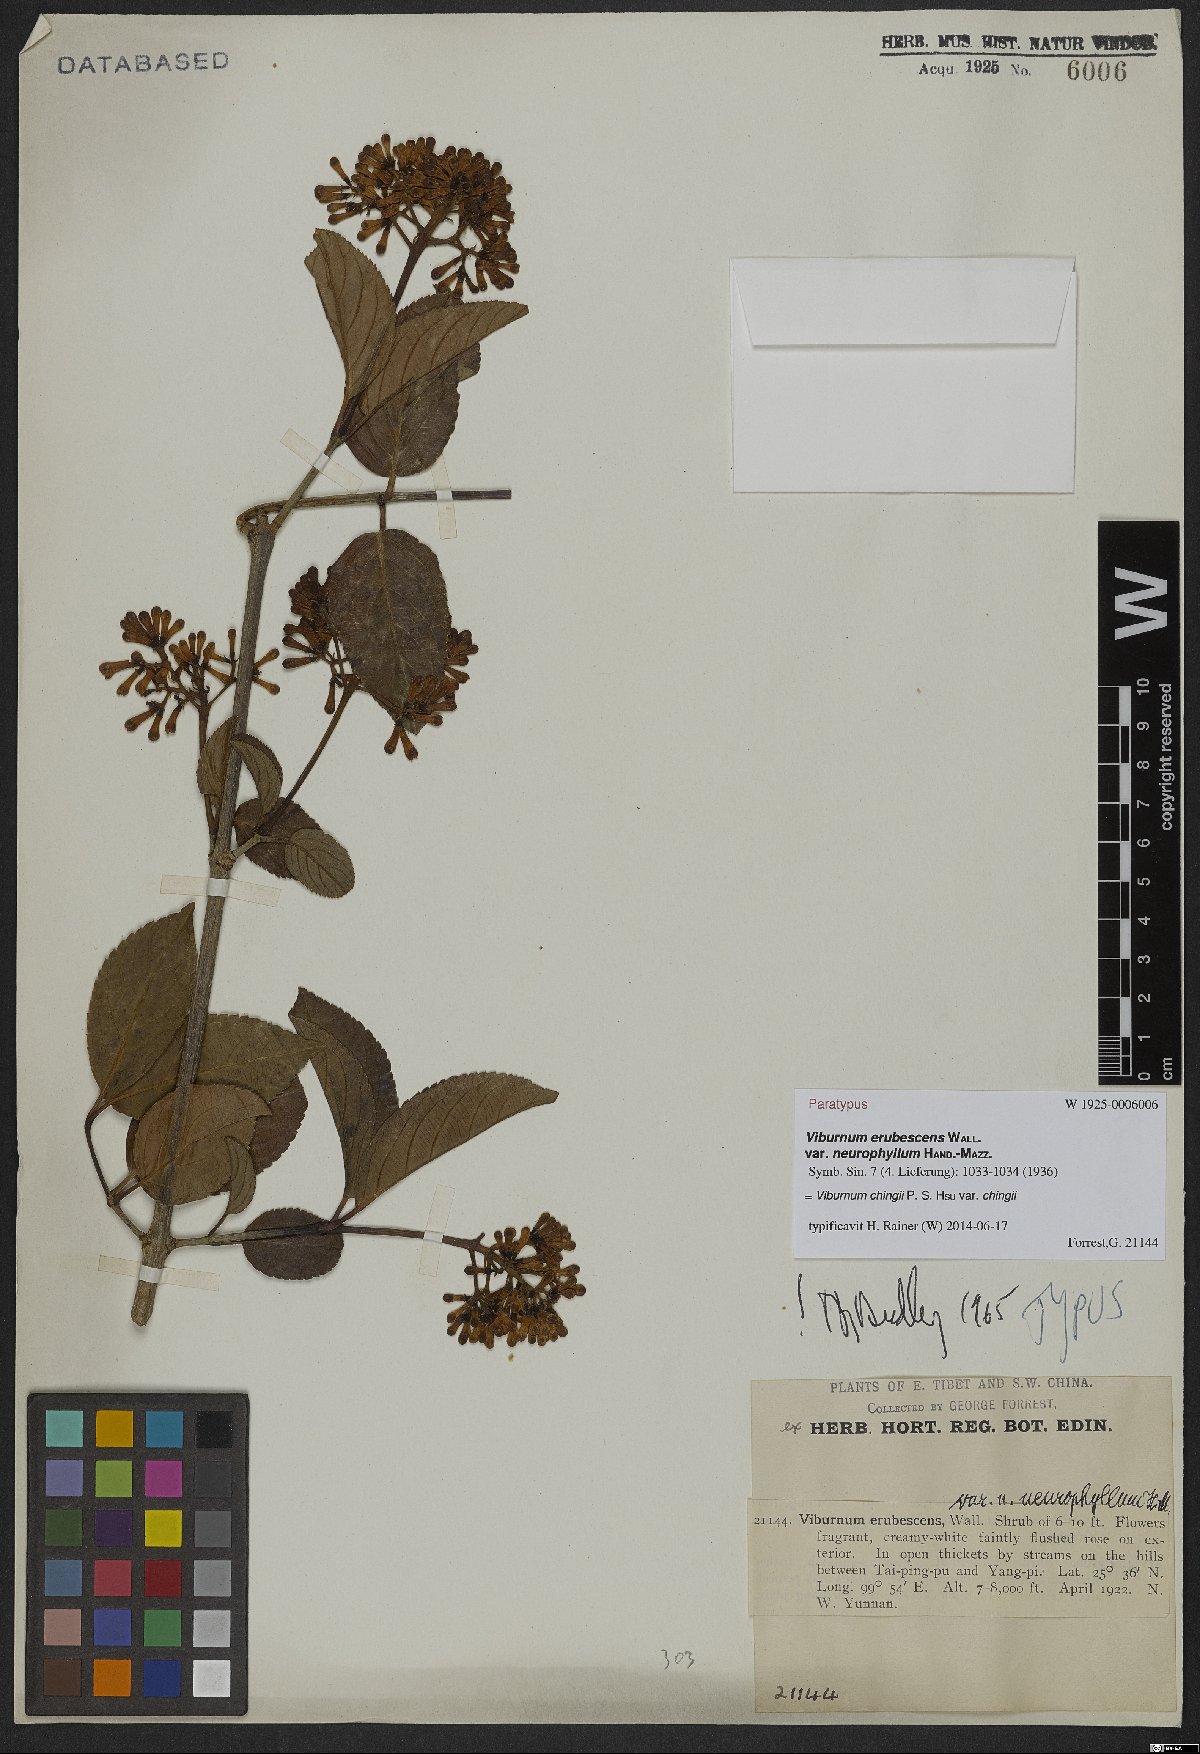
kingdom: Plantae
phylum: Tracheophyta
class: Magnoliopsida
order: Dipsacales
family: Viburnaceae
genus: Viburnum
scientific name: Viburnum chingii
